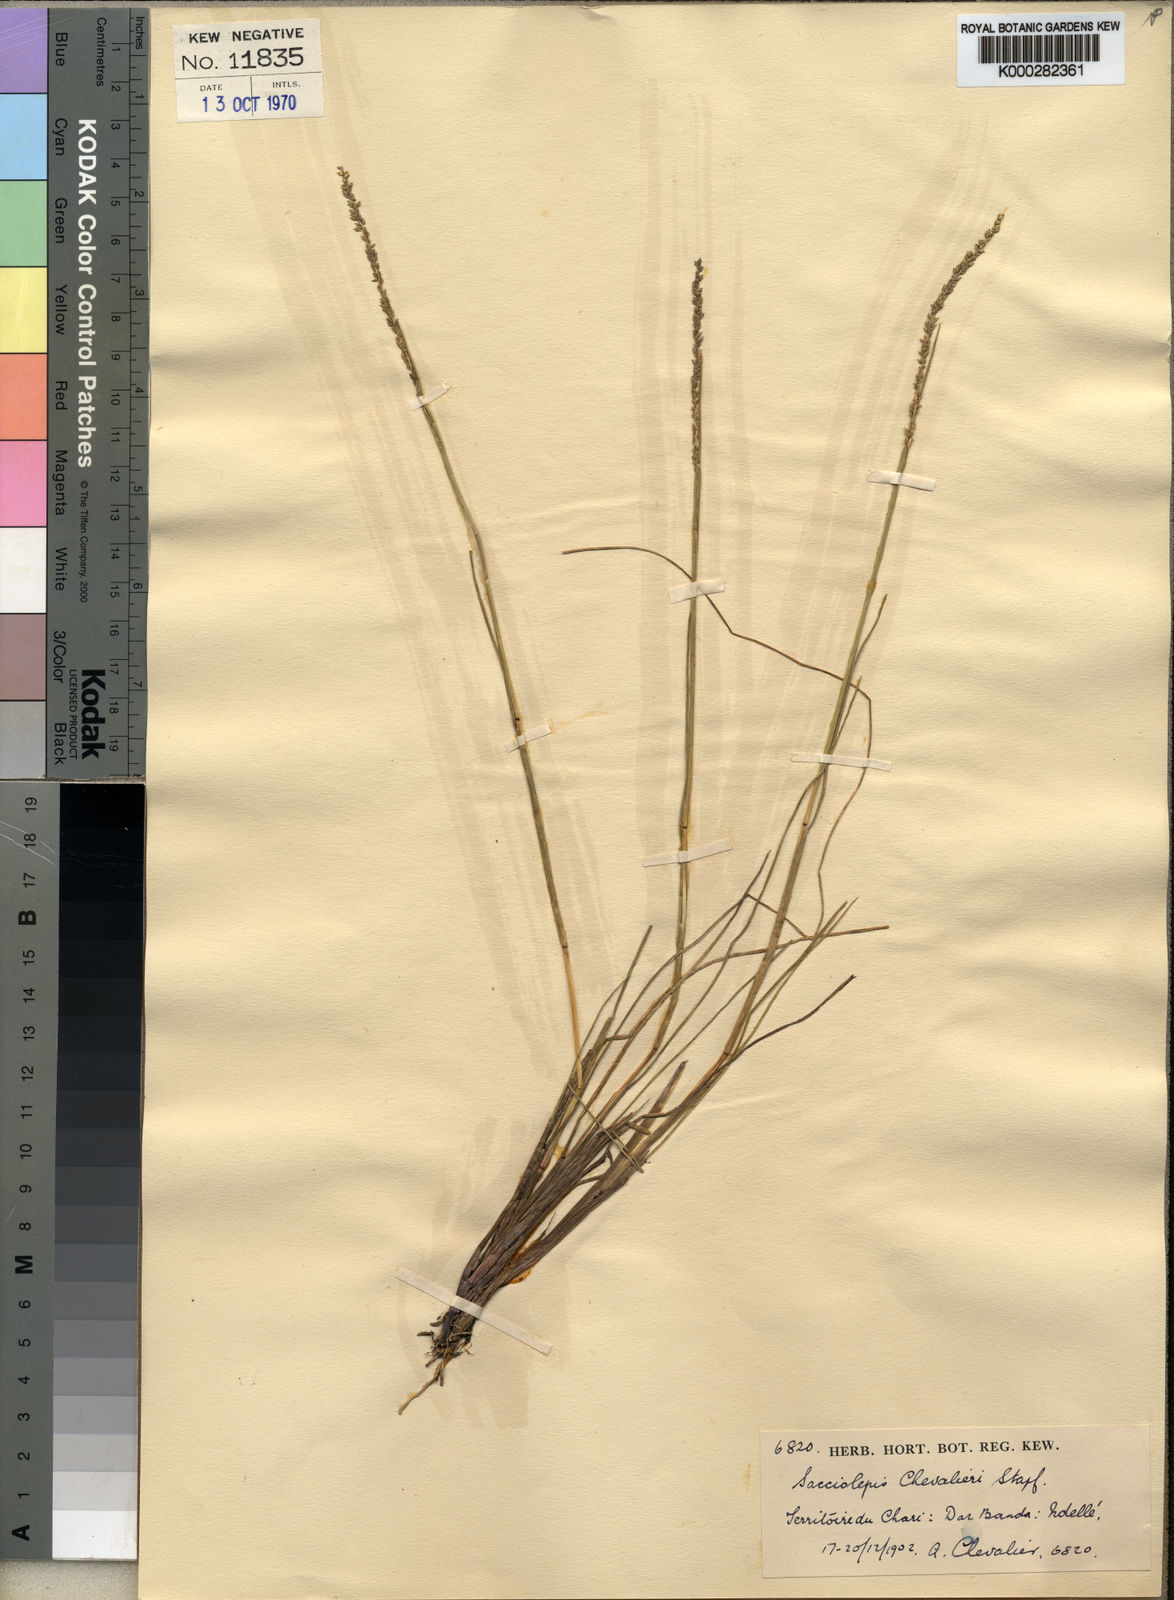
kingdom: Plantae
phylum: Tracheophyta
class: Liliopsida
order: Poales
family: Poaceae
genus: Sacciolepis
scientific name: Sacciolepis indica
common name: Glenwoodgrass
